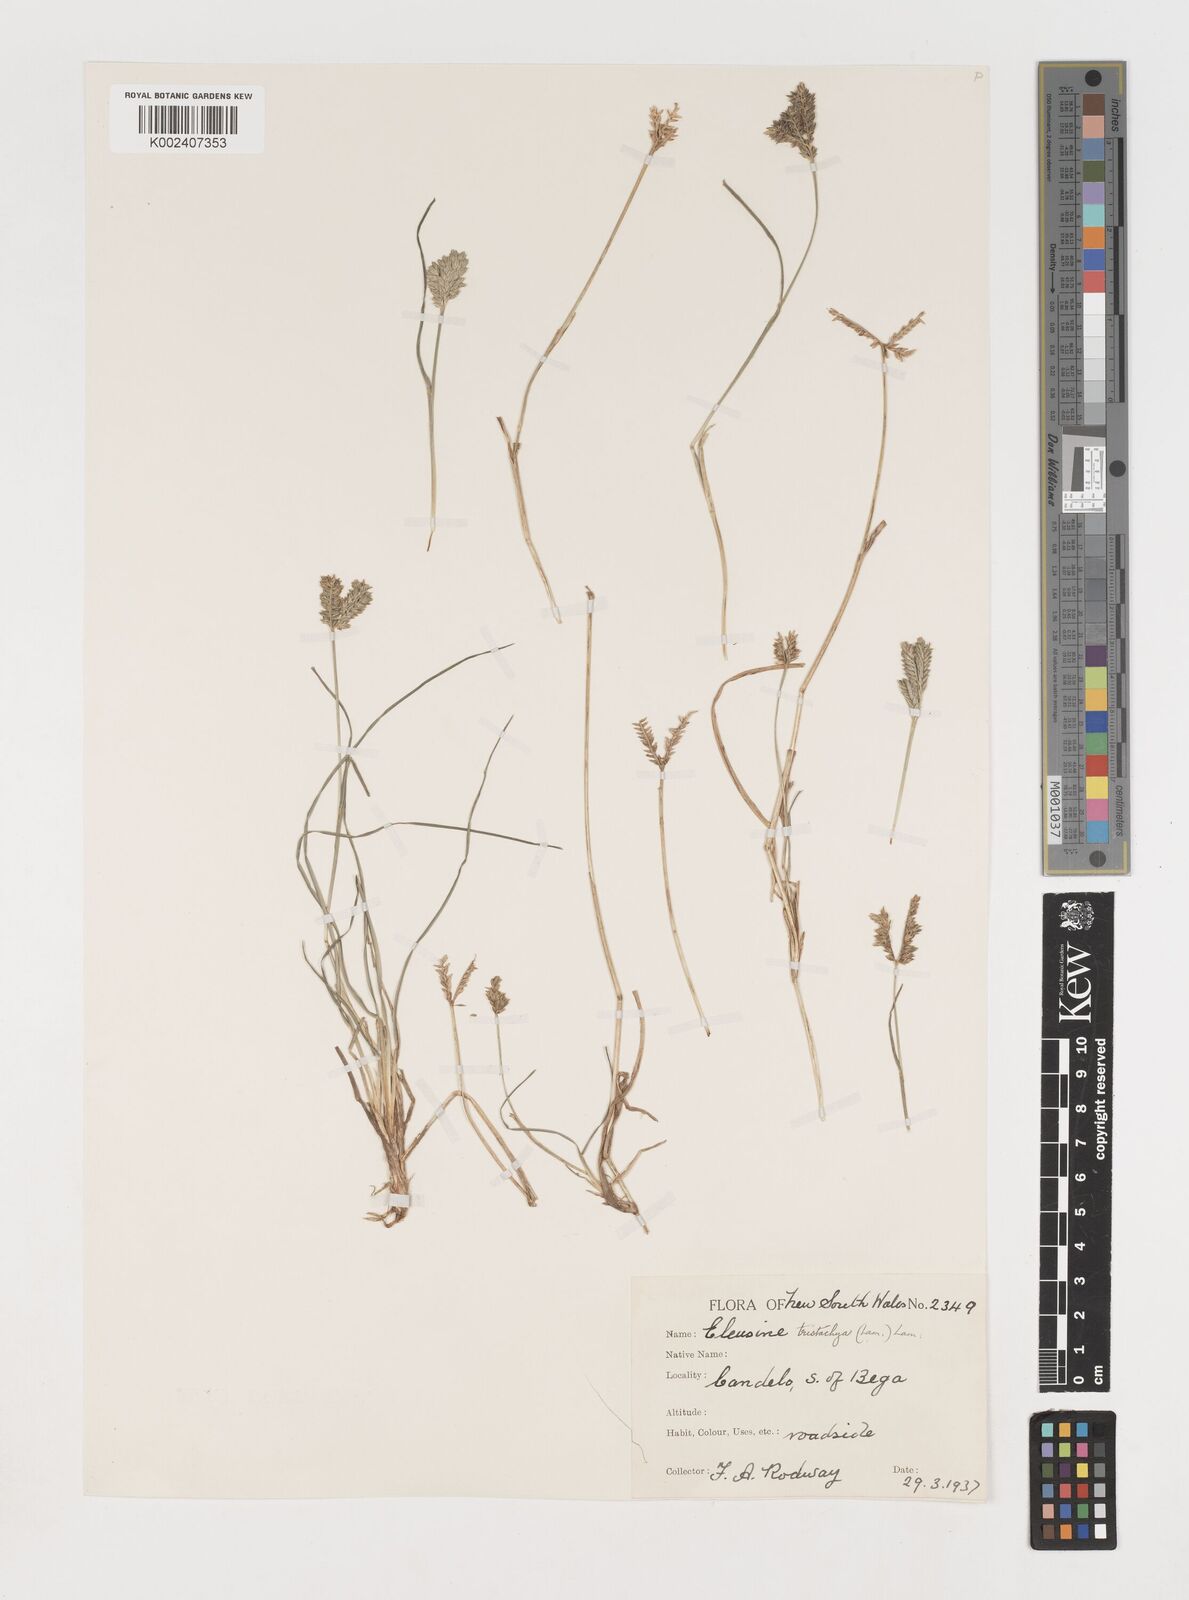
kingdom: Plantae
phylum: Tracheophyta
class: Liliopsida
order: Poales
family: Poaceae
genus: Eleusine
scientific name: Eleusine tristachya
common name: American yard-grass
